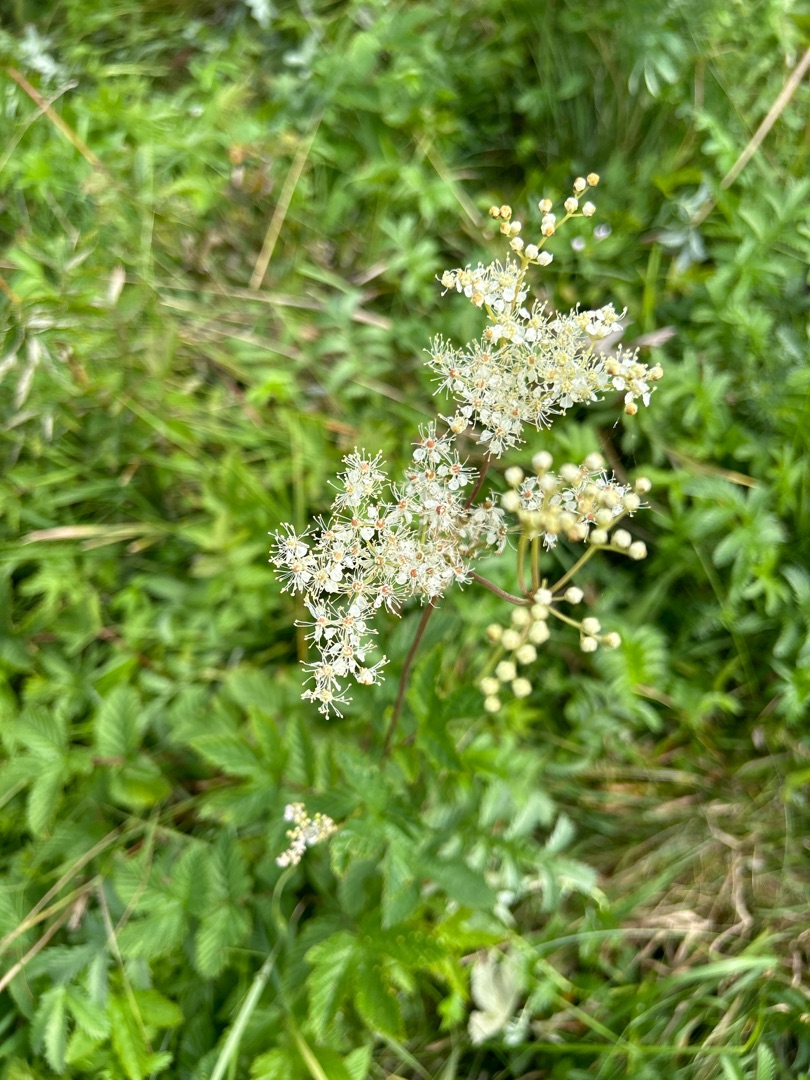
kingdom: Plantae
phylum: Tracheophyta
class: Magnoliopsida
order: Rosales
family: Rosaceae
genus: Filipendula
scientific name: Filipendula ulmaria
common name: Almindelig mjødurt
